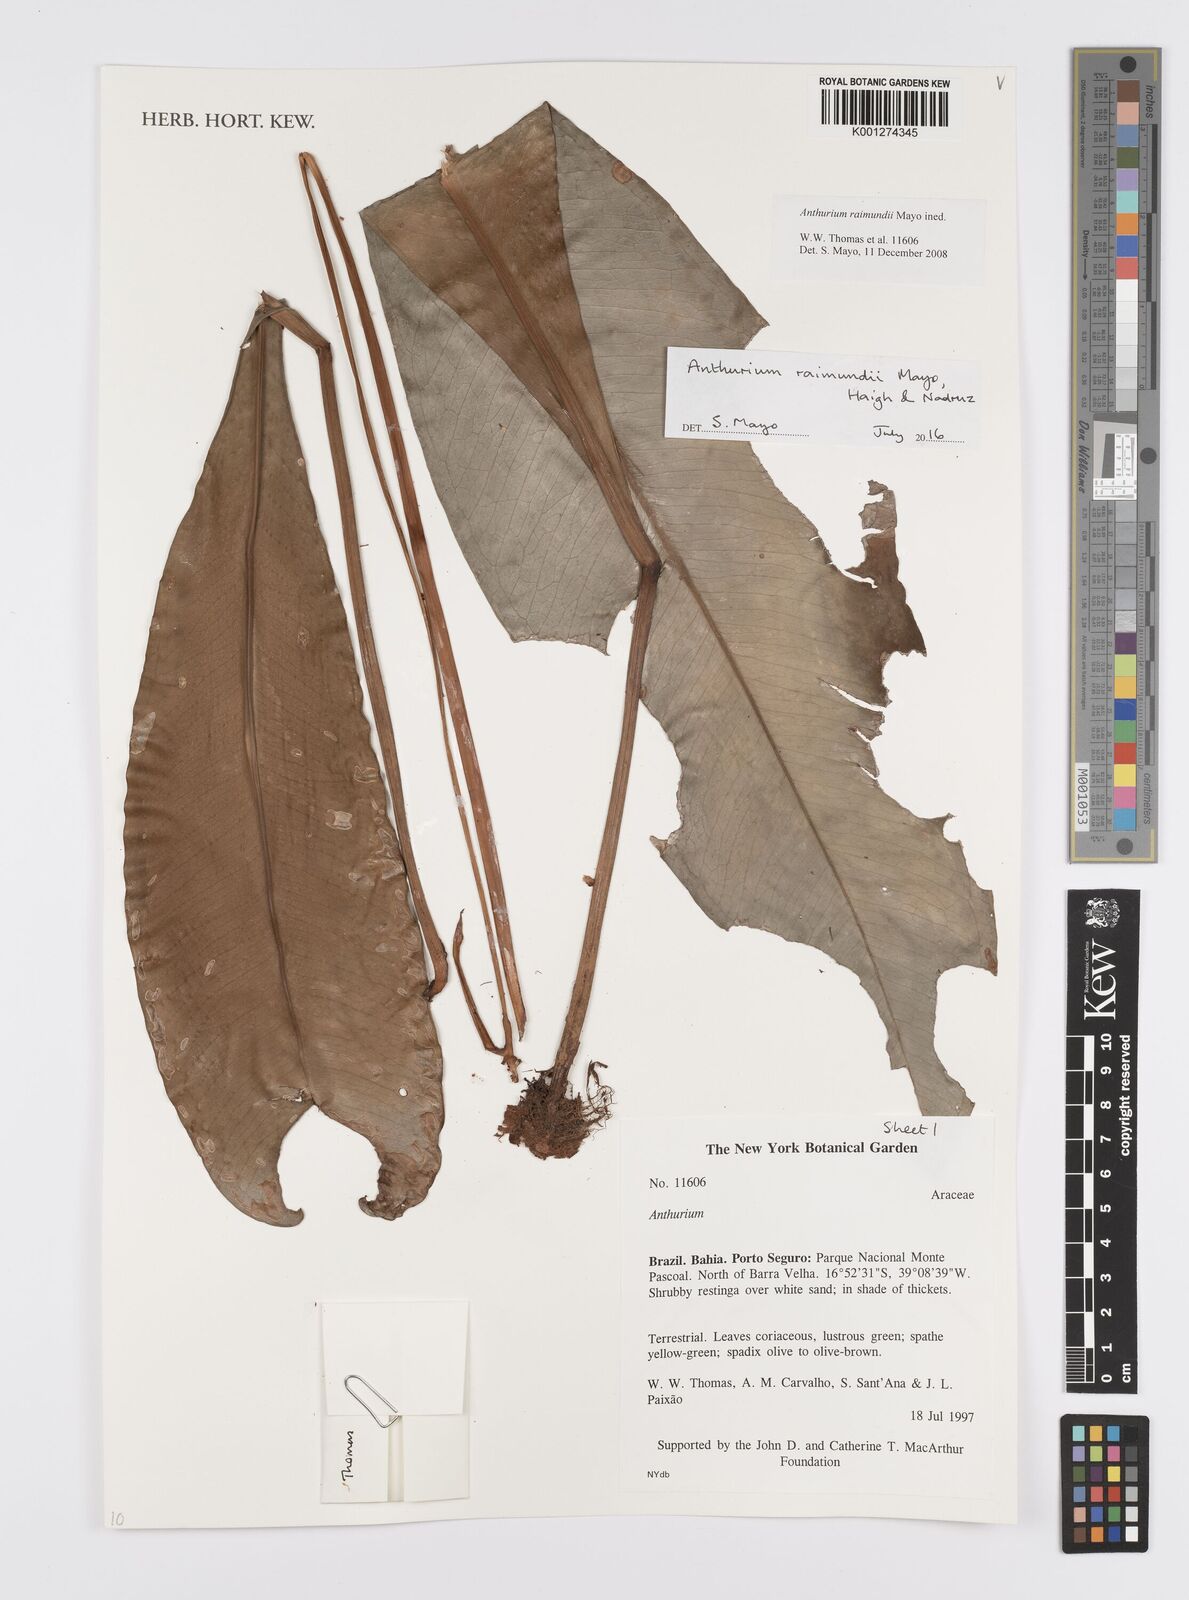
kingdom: Plantae
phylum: Tracheophyta
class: Liliopsida
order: Alismatales
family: Araceae
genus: Anthurium
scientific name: Anthurium raimundii
